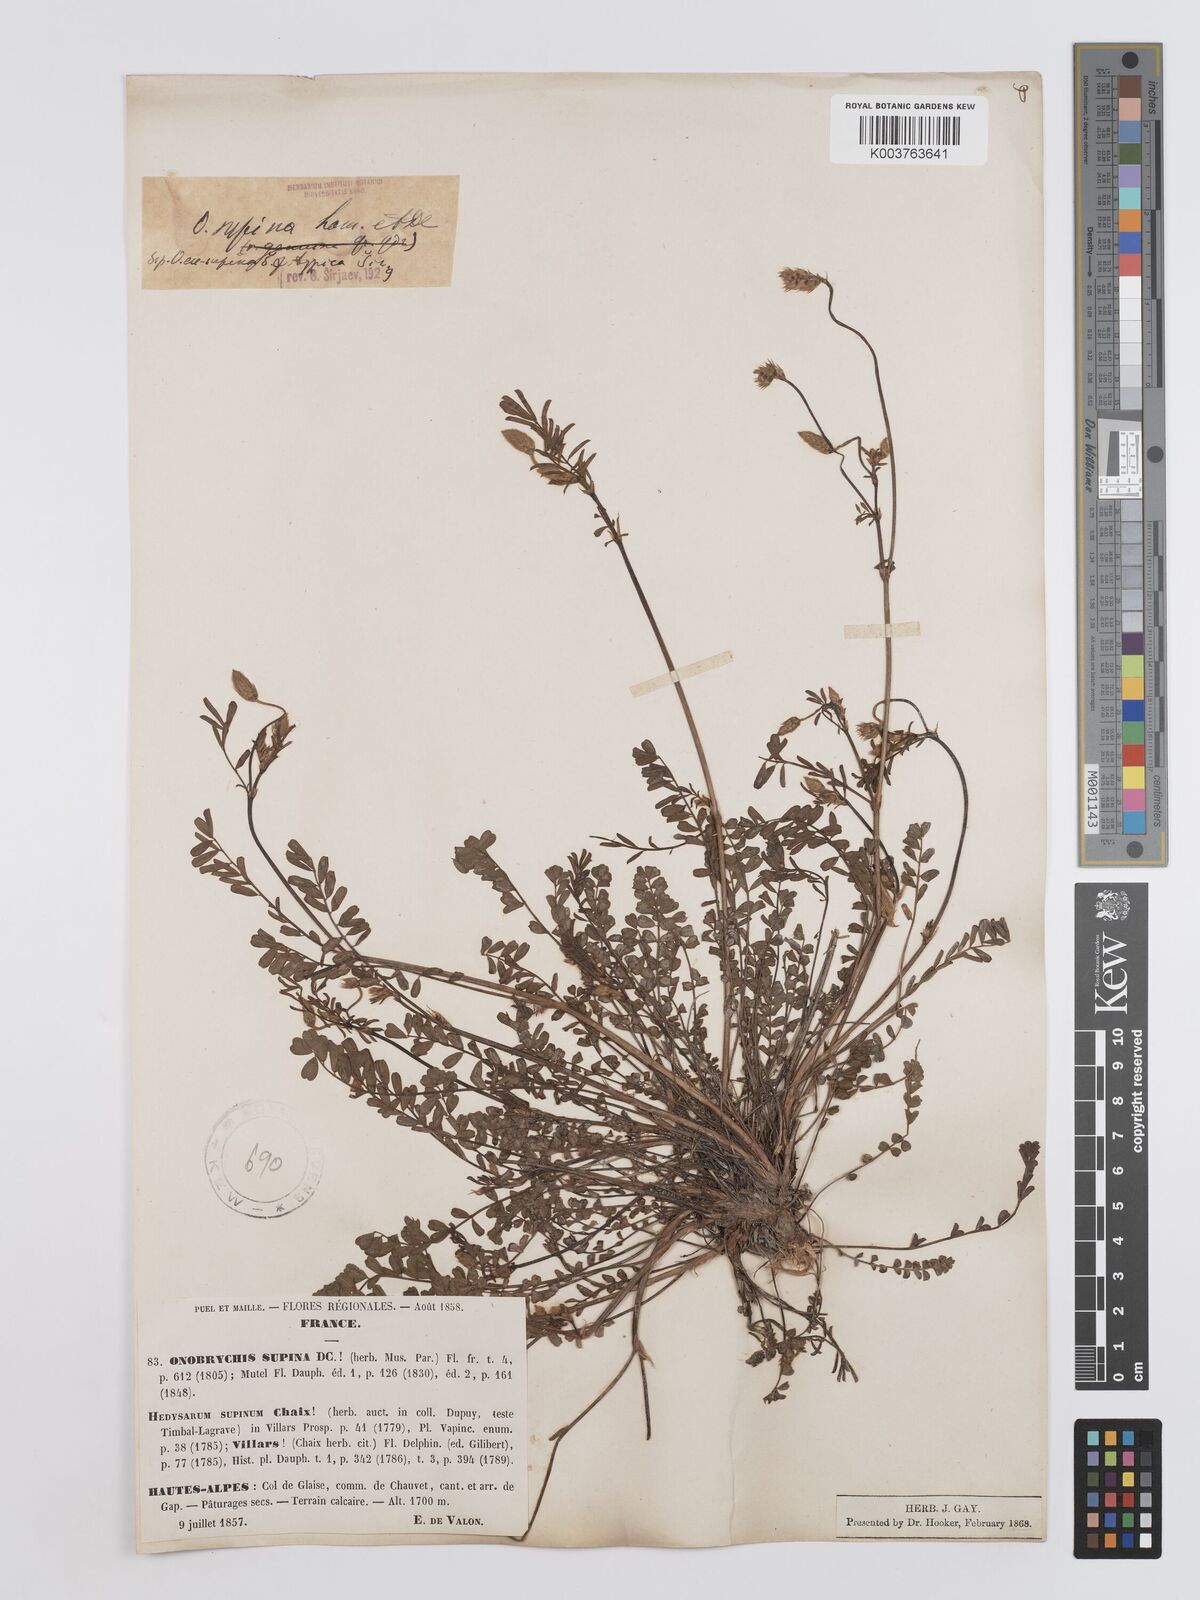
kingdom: Plantae
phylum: Tracheophyta
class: Magnoliopsida
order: Fabales
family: Fabaceae
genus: Onobrychis
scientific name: Onobrychis supina
